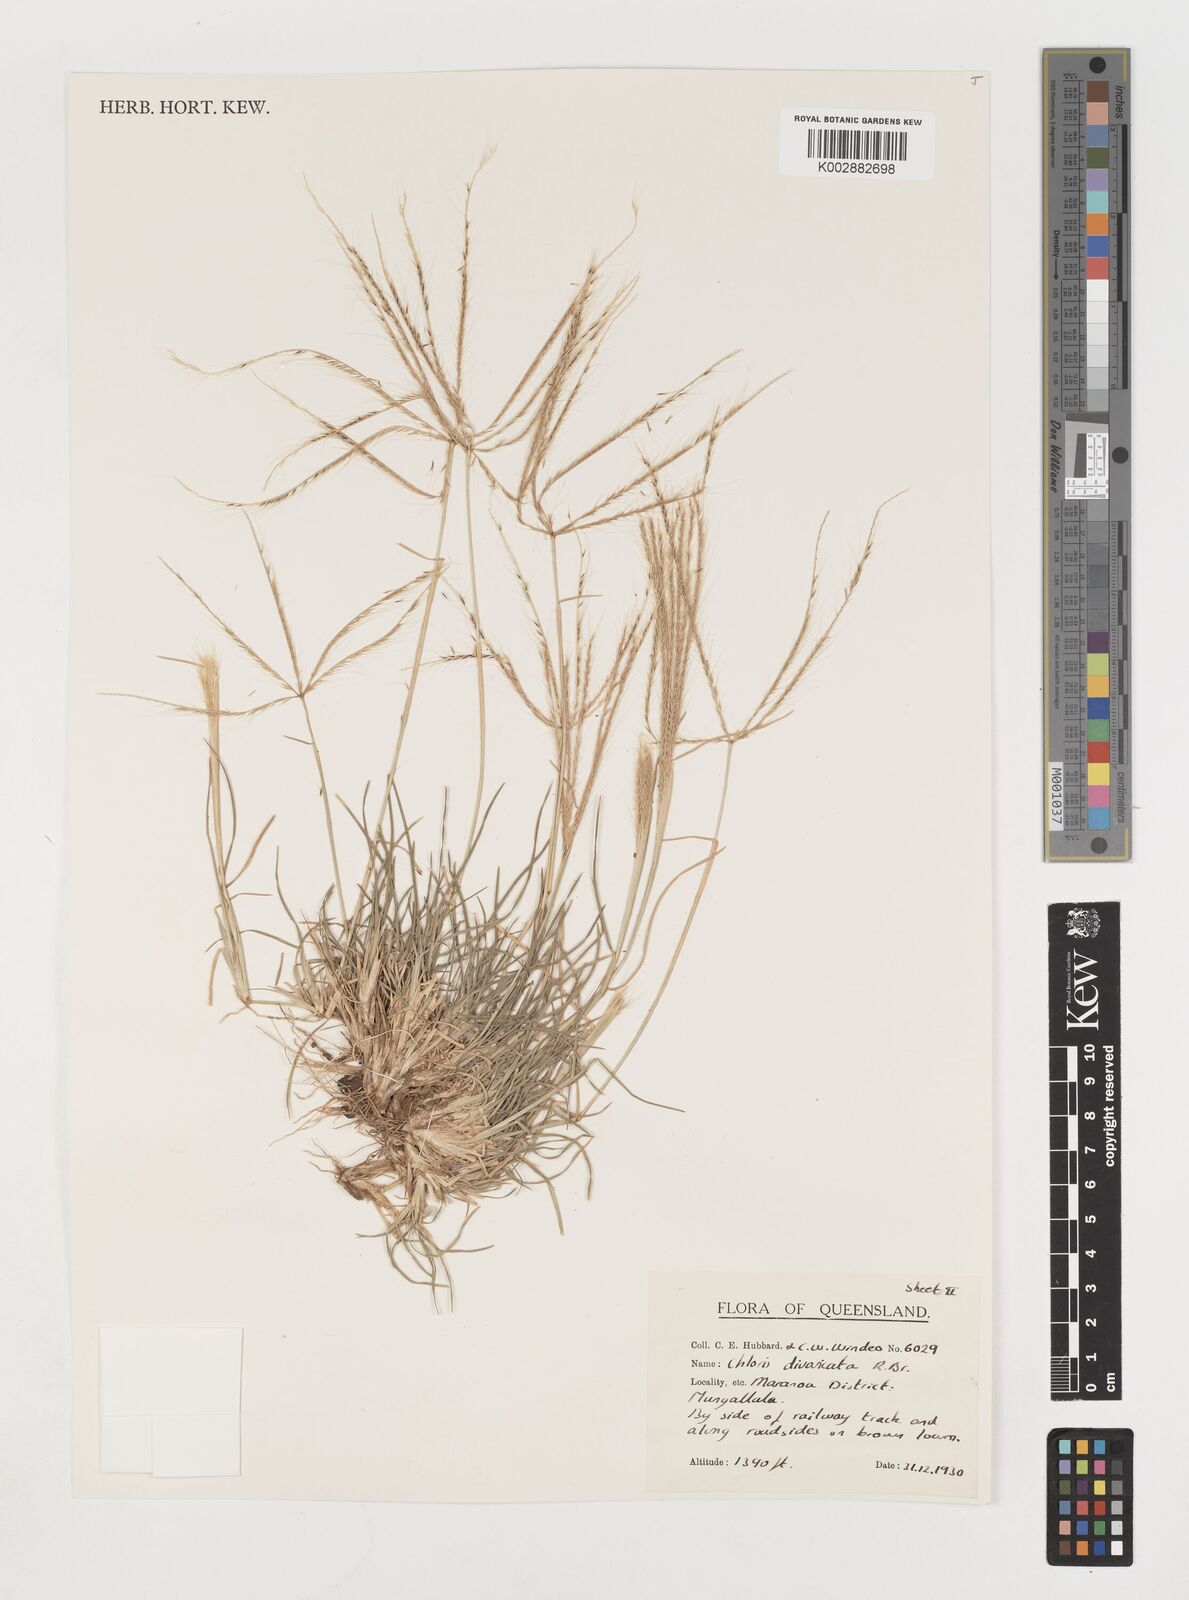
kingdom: Plantae
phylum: Tracheophyta
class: Liliopsida
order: Poales
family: Poaceae
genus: Chloris
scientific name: Chloris divaricata
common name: Spreading windmill grass
